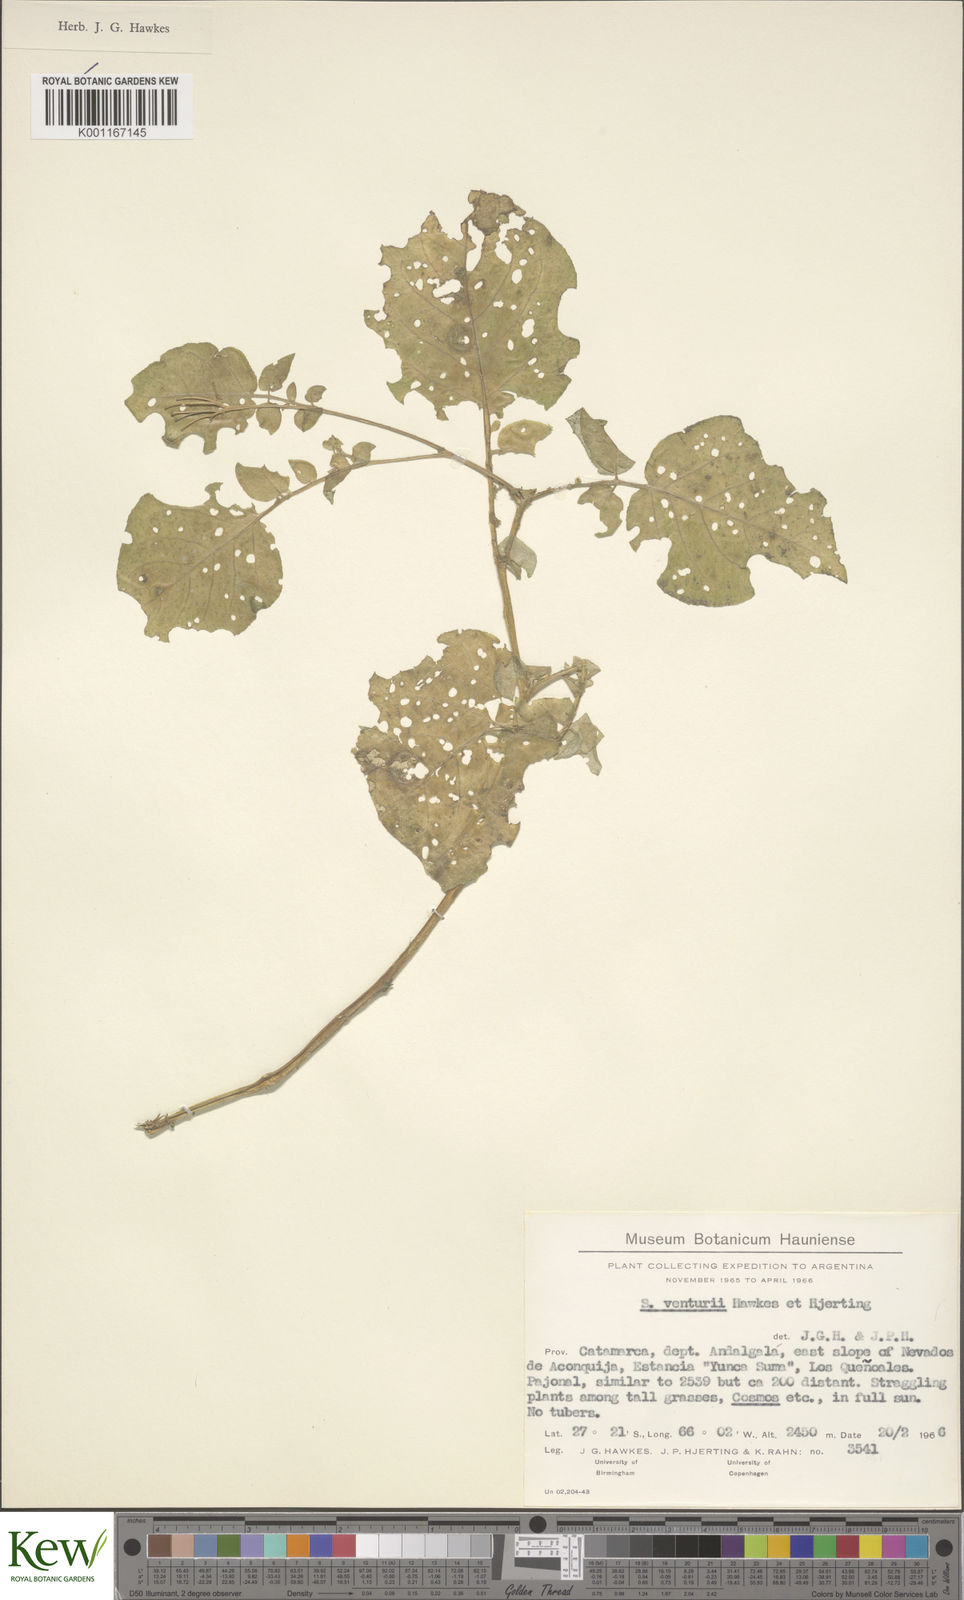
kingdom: Plantae
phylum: Tracheophyta
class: Magnoliopsida
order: Solanales
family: Solanaceae
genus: Solanum
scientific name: Solanum venturii
